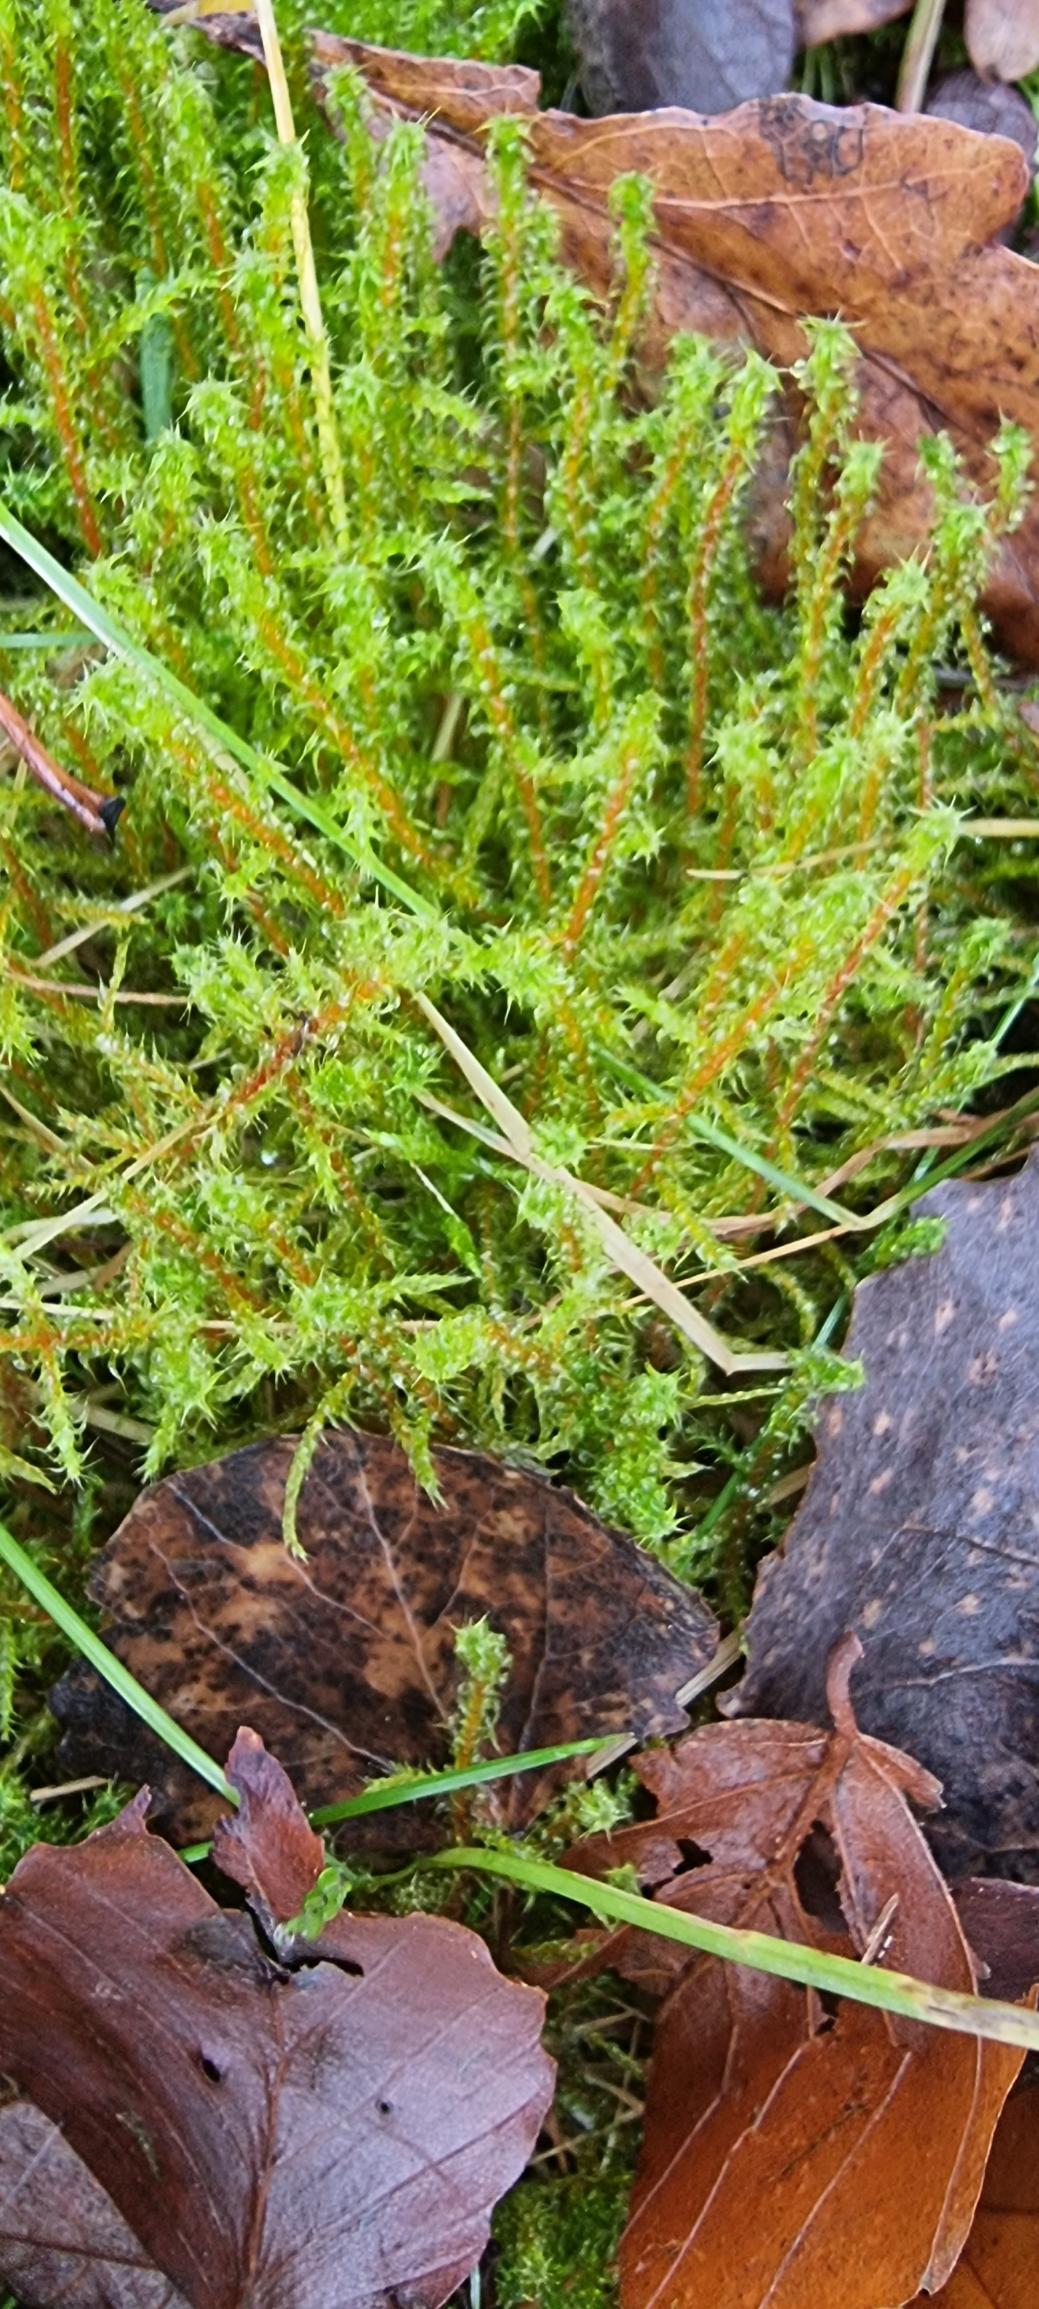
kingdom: Plantae
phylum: Bryophyta
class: Bryopsida
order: Hypnales
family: Hylocomiaceae
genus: Rhytidiadelphus
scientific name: Rhytidiadelphus squarrosus
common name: Plæne-kransemos
